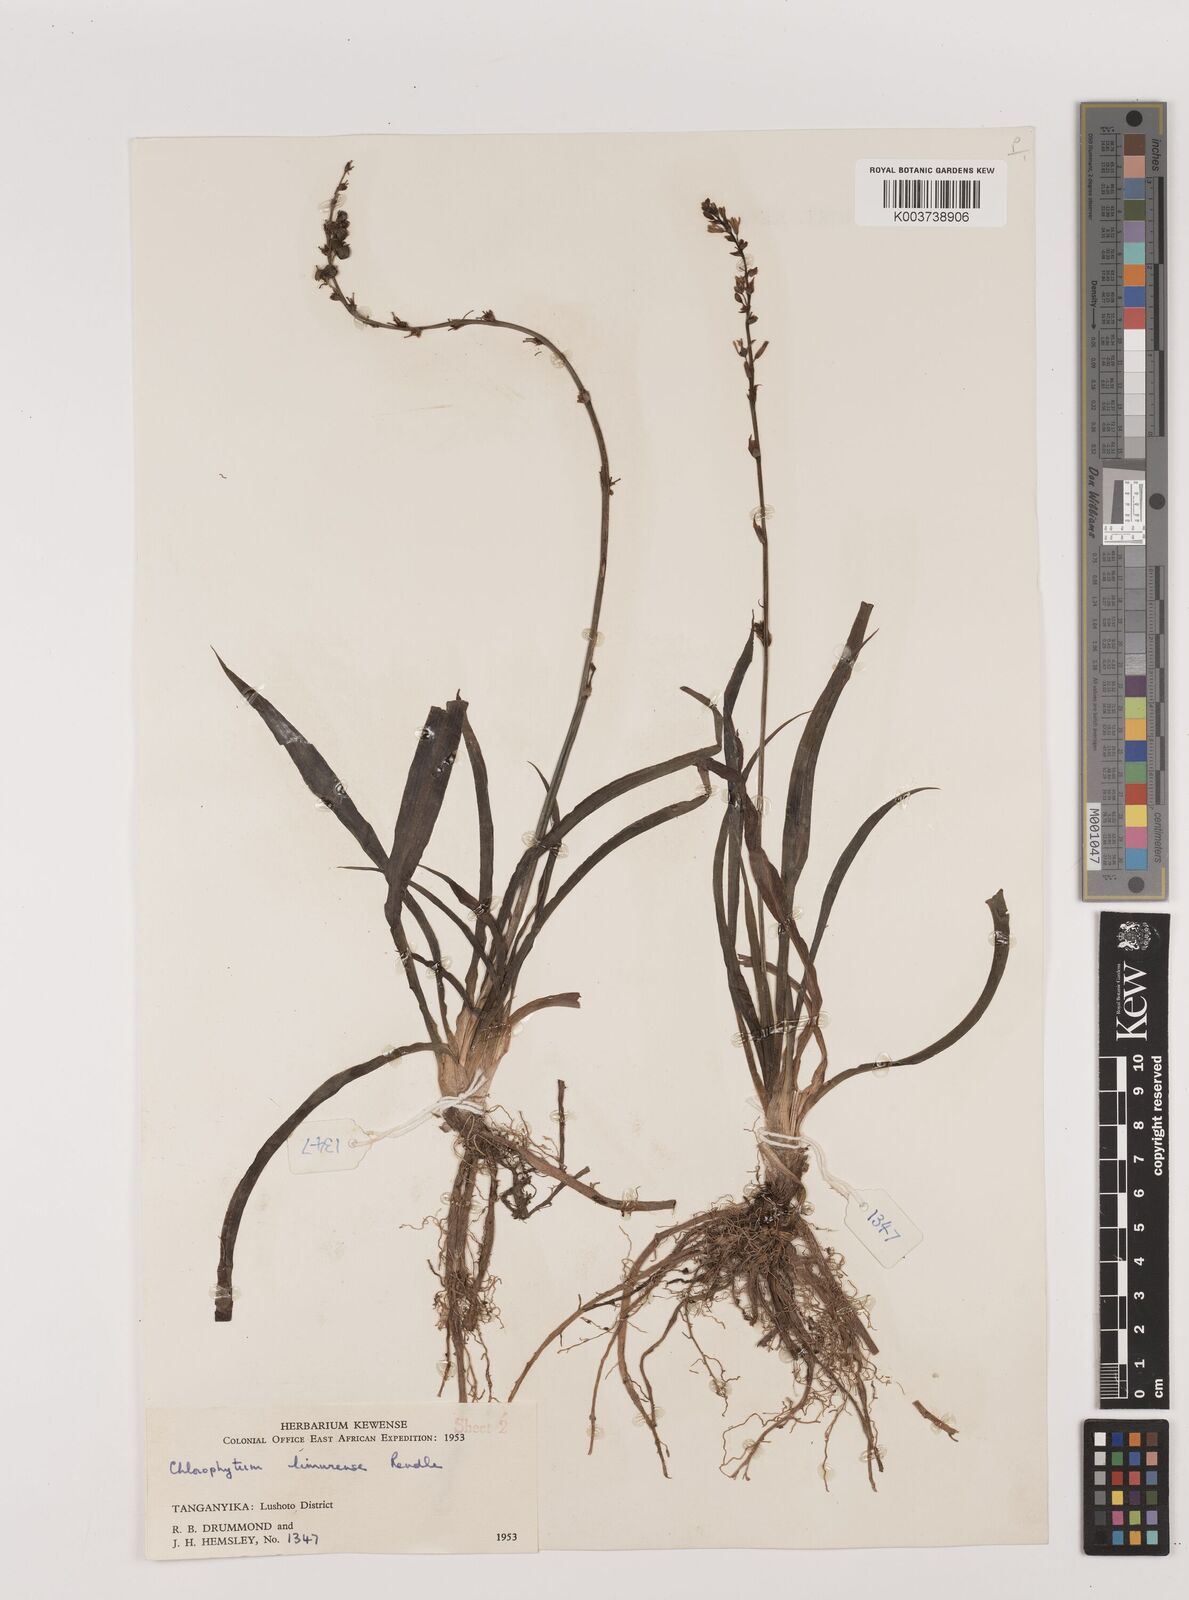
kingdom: Plantae
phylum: Tracheophyta
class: Liliopsida
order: Asparagales
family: Asparagaceae
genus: Chlorophytum
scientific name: Chlorophytum comosum
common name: Spider plant
